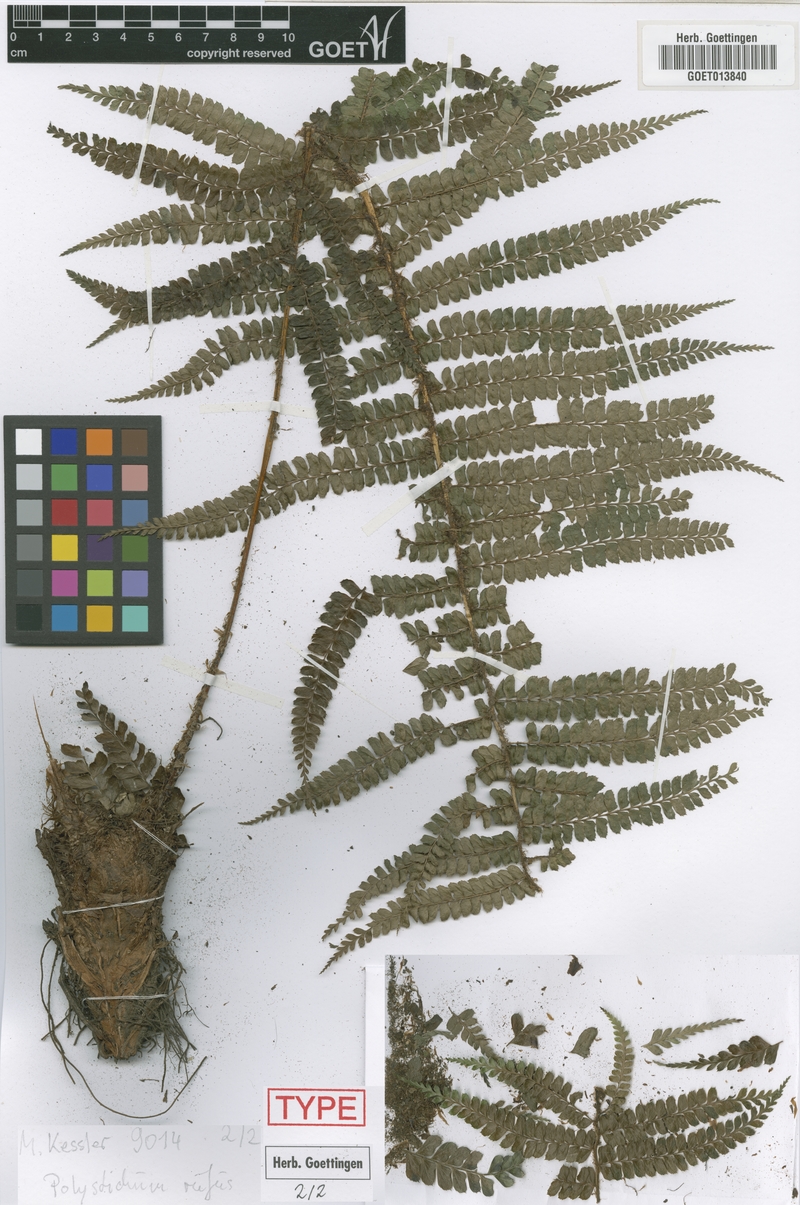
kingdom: Plantae
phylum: Tracheophyta
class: Polypodiopsida
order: Polypodiales
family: Dryopteridaceae
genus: Polystichum
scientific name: Polystichum rufum
